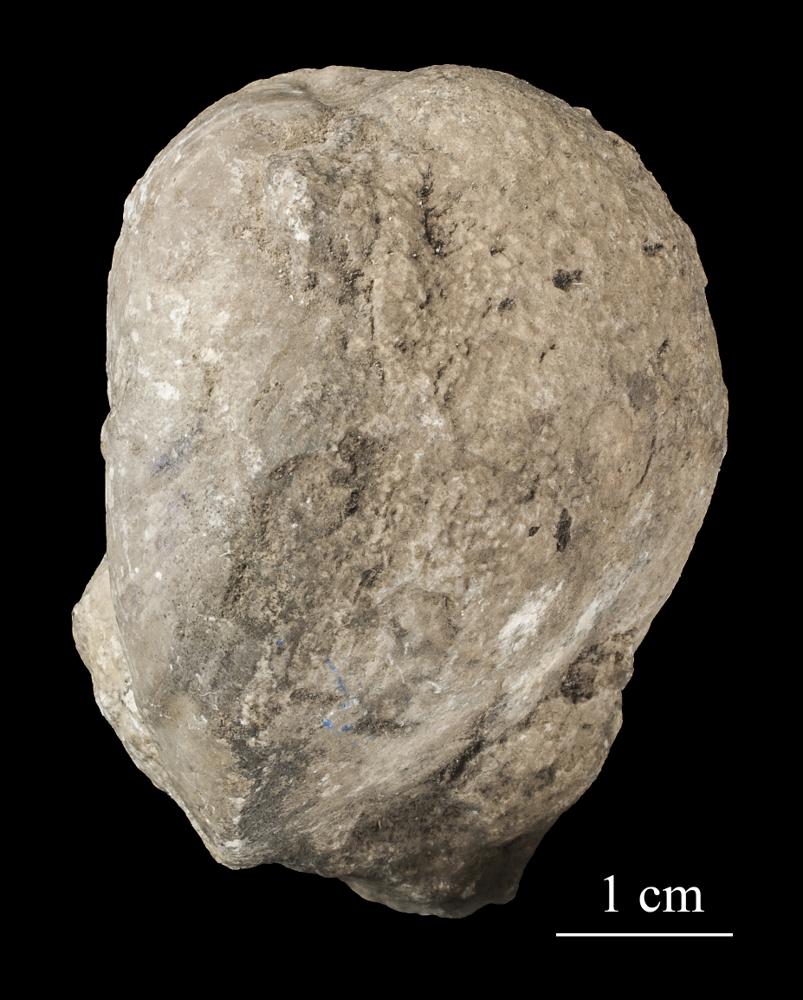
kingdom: Animalia
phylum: Brachiopoda
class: Rhynchonellata
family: Porambonitidae
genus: Porambonites
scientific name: Porambonites
